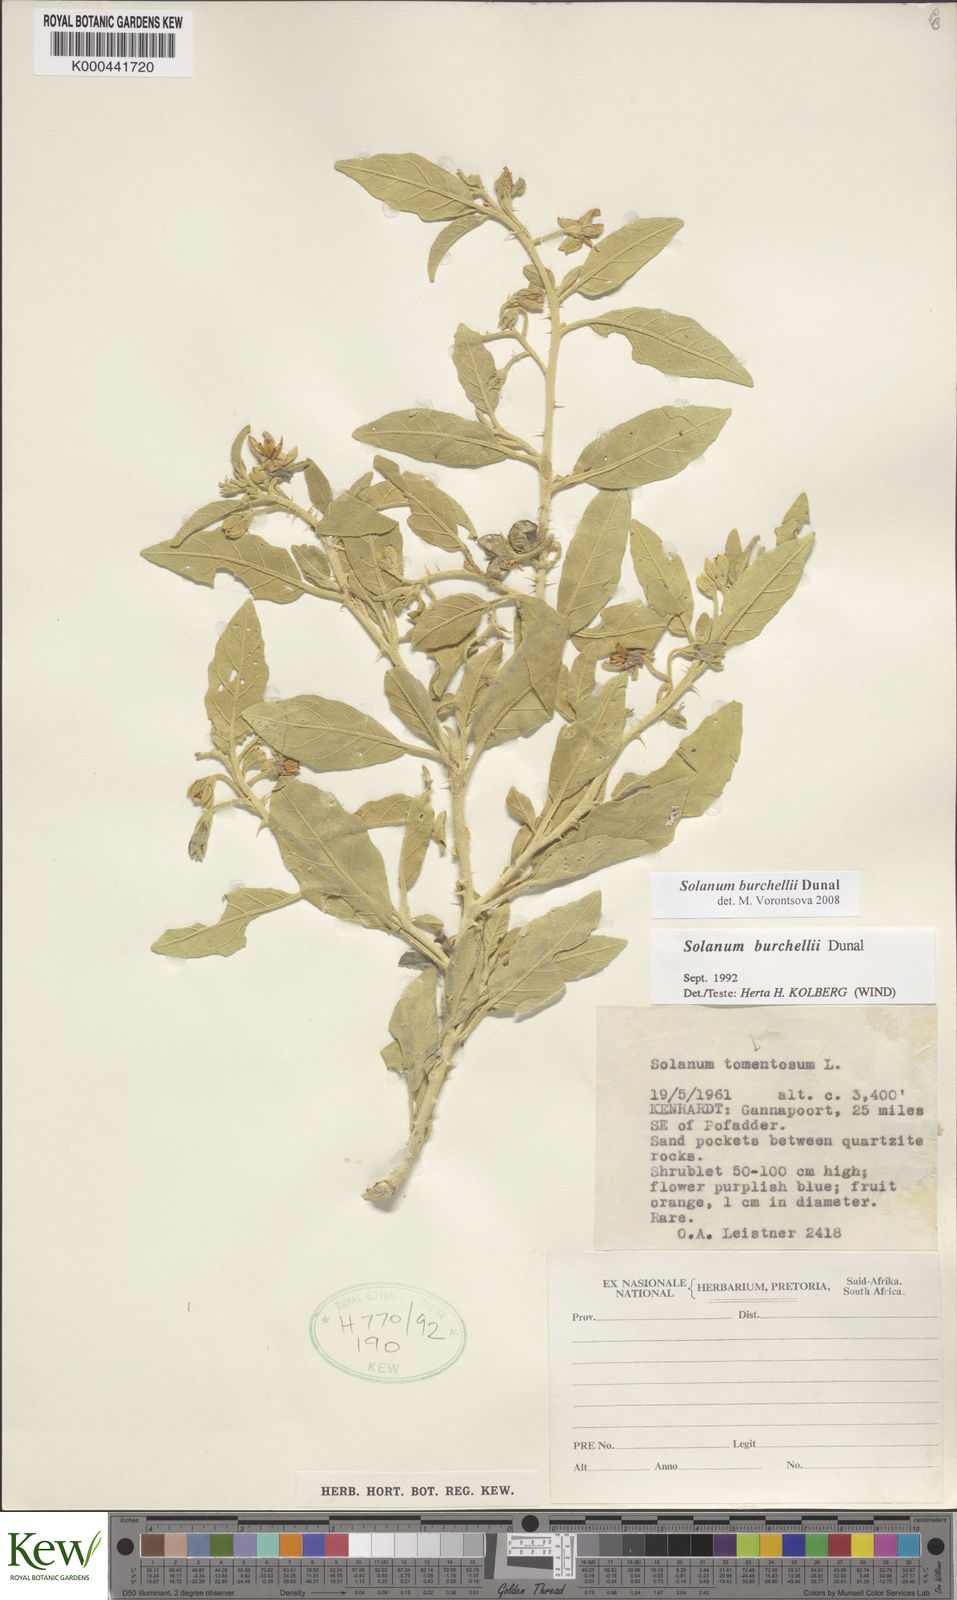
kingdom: Plantae
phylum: Tracheophyta
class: Magnoliopsida
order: Solanales
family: Solanaceae
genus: Solanum
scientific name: Solanum burchellii
